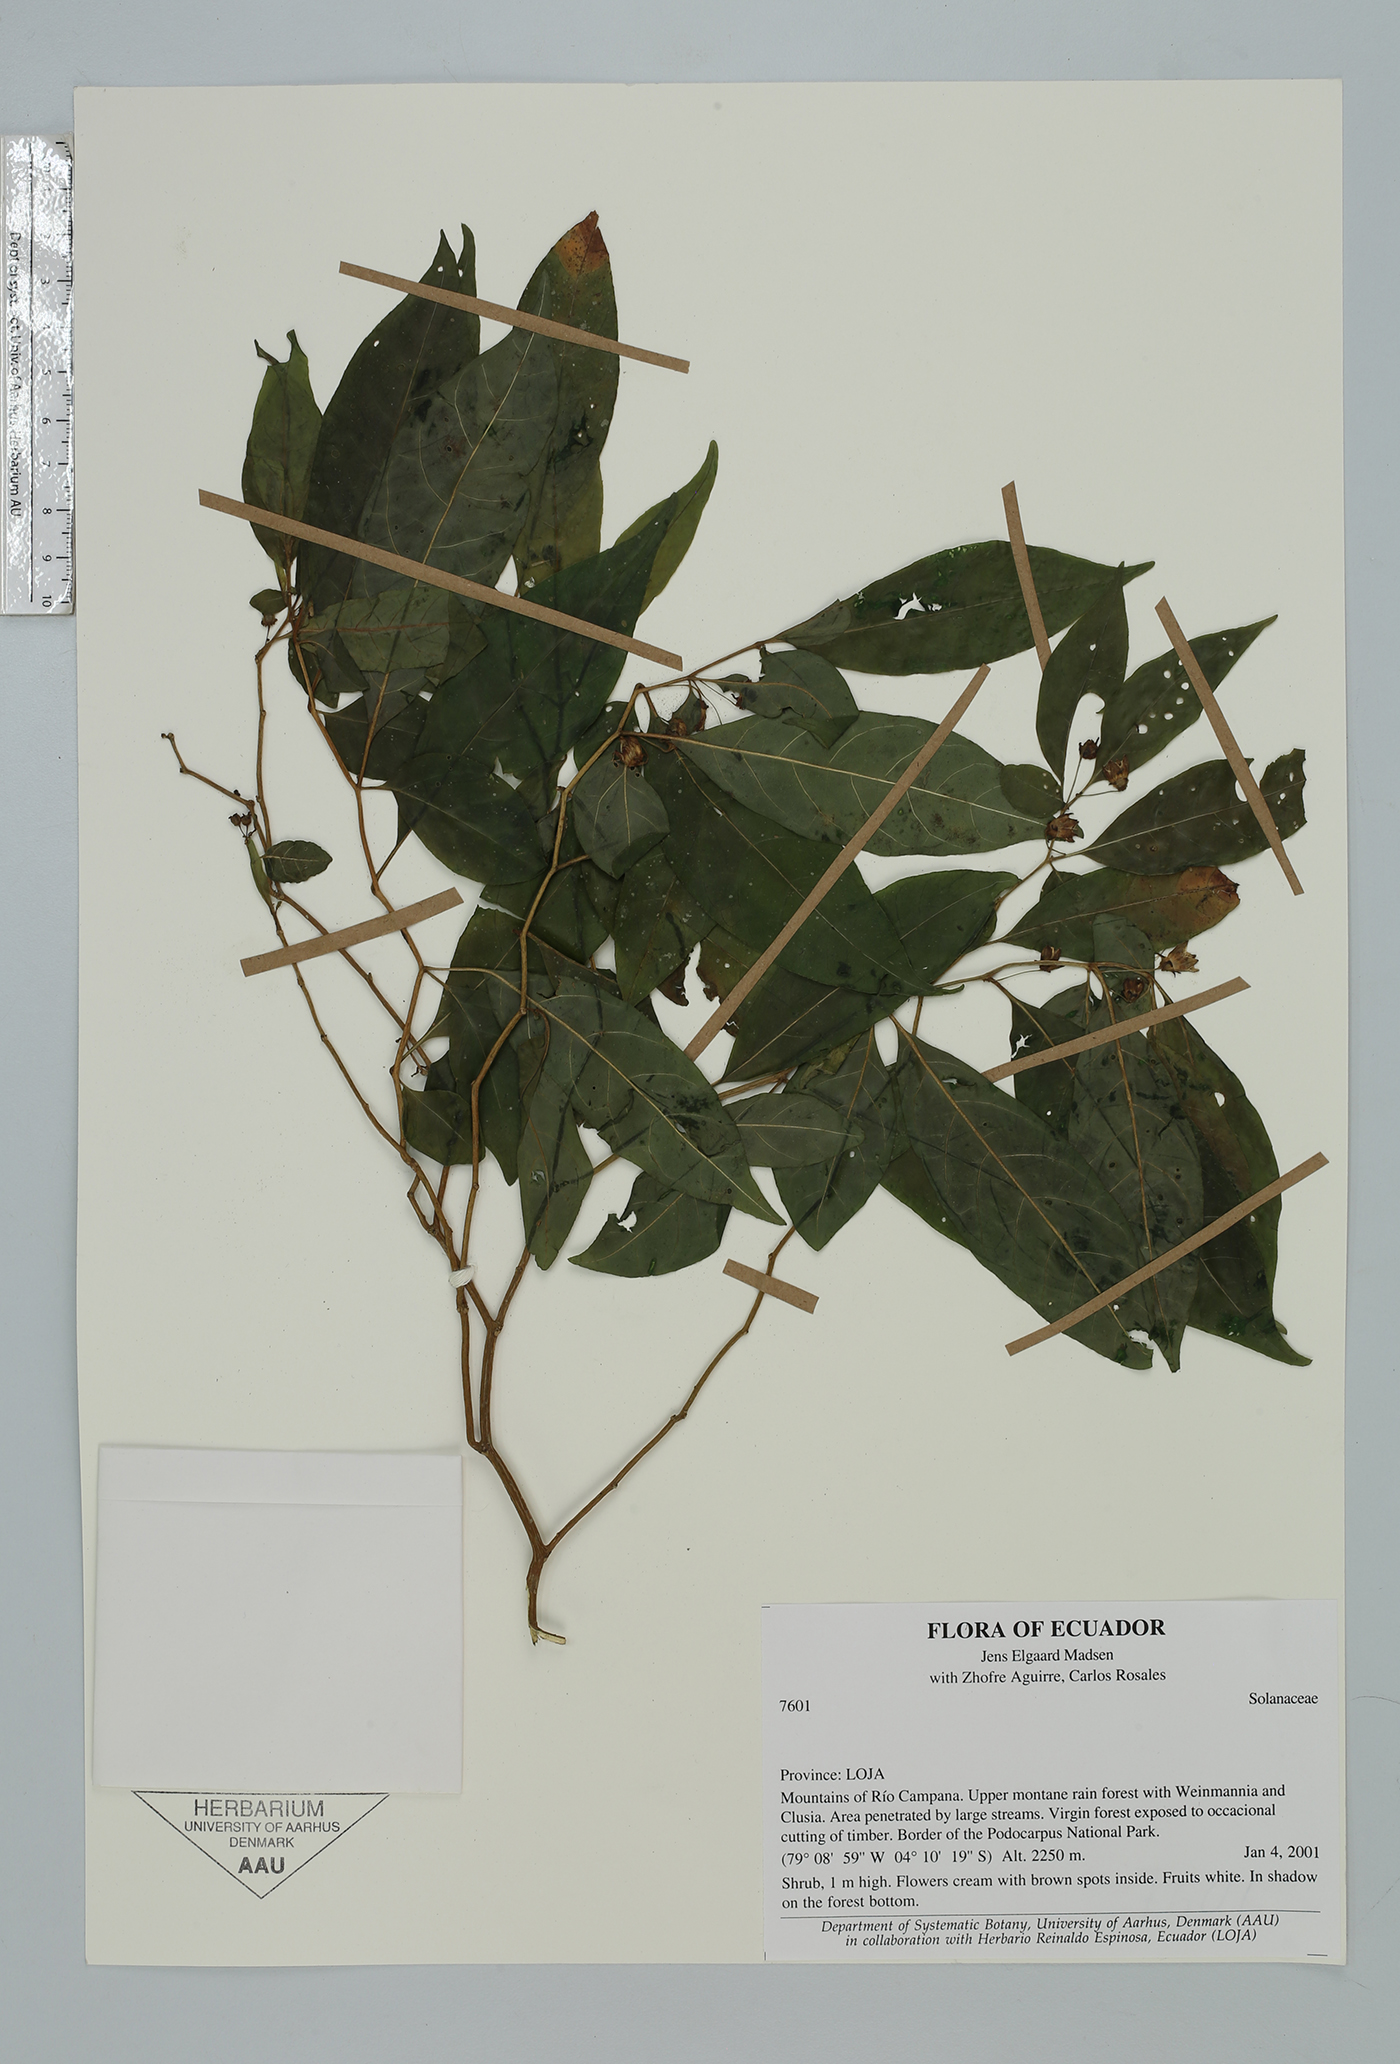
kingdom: Plantae
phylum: Tracheophyta
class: Magnoliopsida
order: Solanales
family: Solanaceae
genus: Capsicum
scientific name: Capsicum
